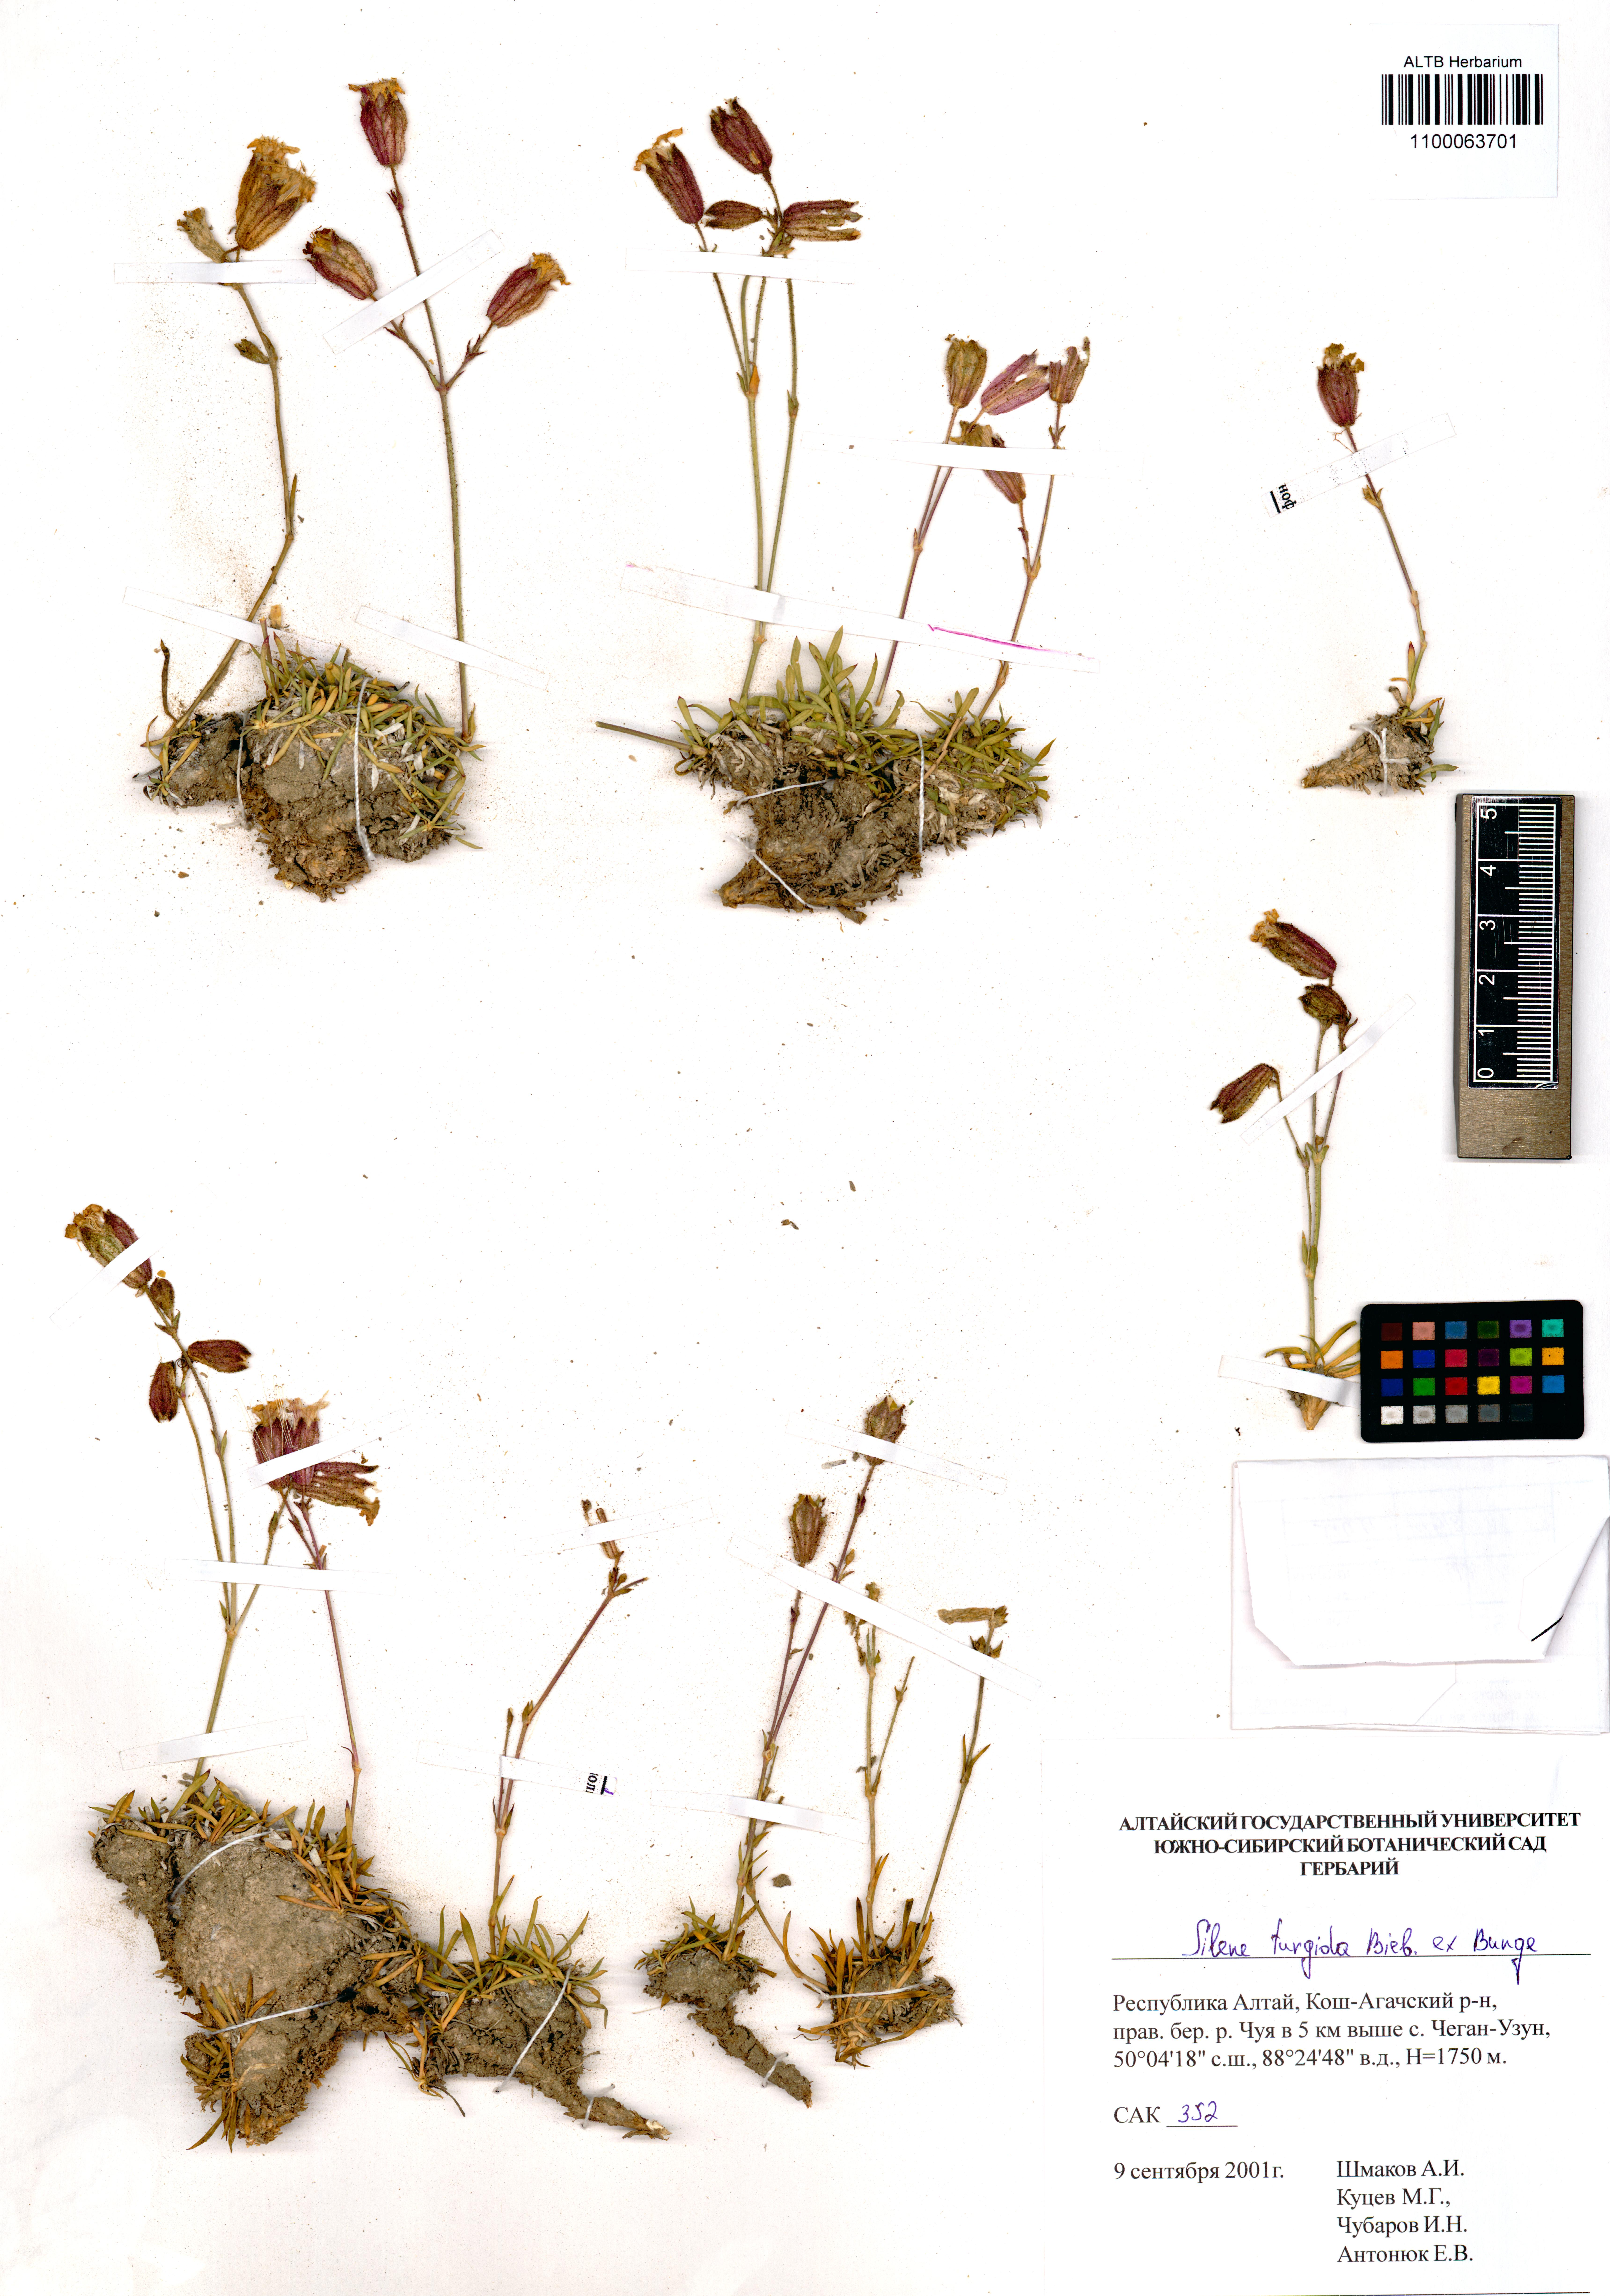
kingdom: Plantae
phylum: Tracheophyta
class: Magnoliopsida
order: Caryophyllales
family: Caryophyllaceae
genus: Silene
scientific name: Silene turgida
